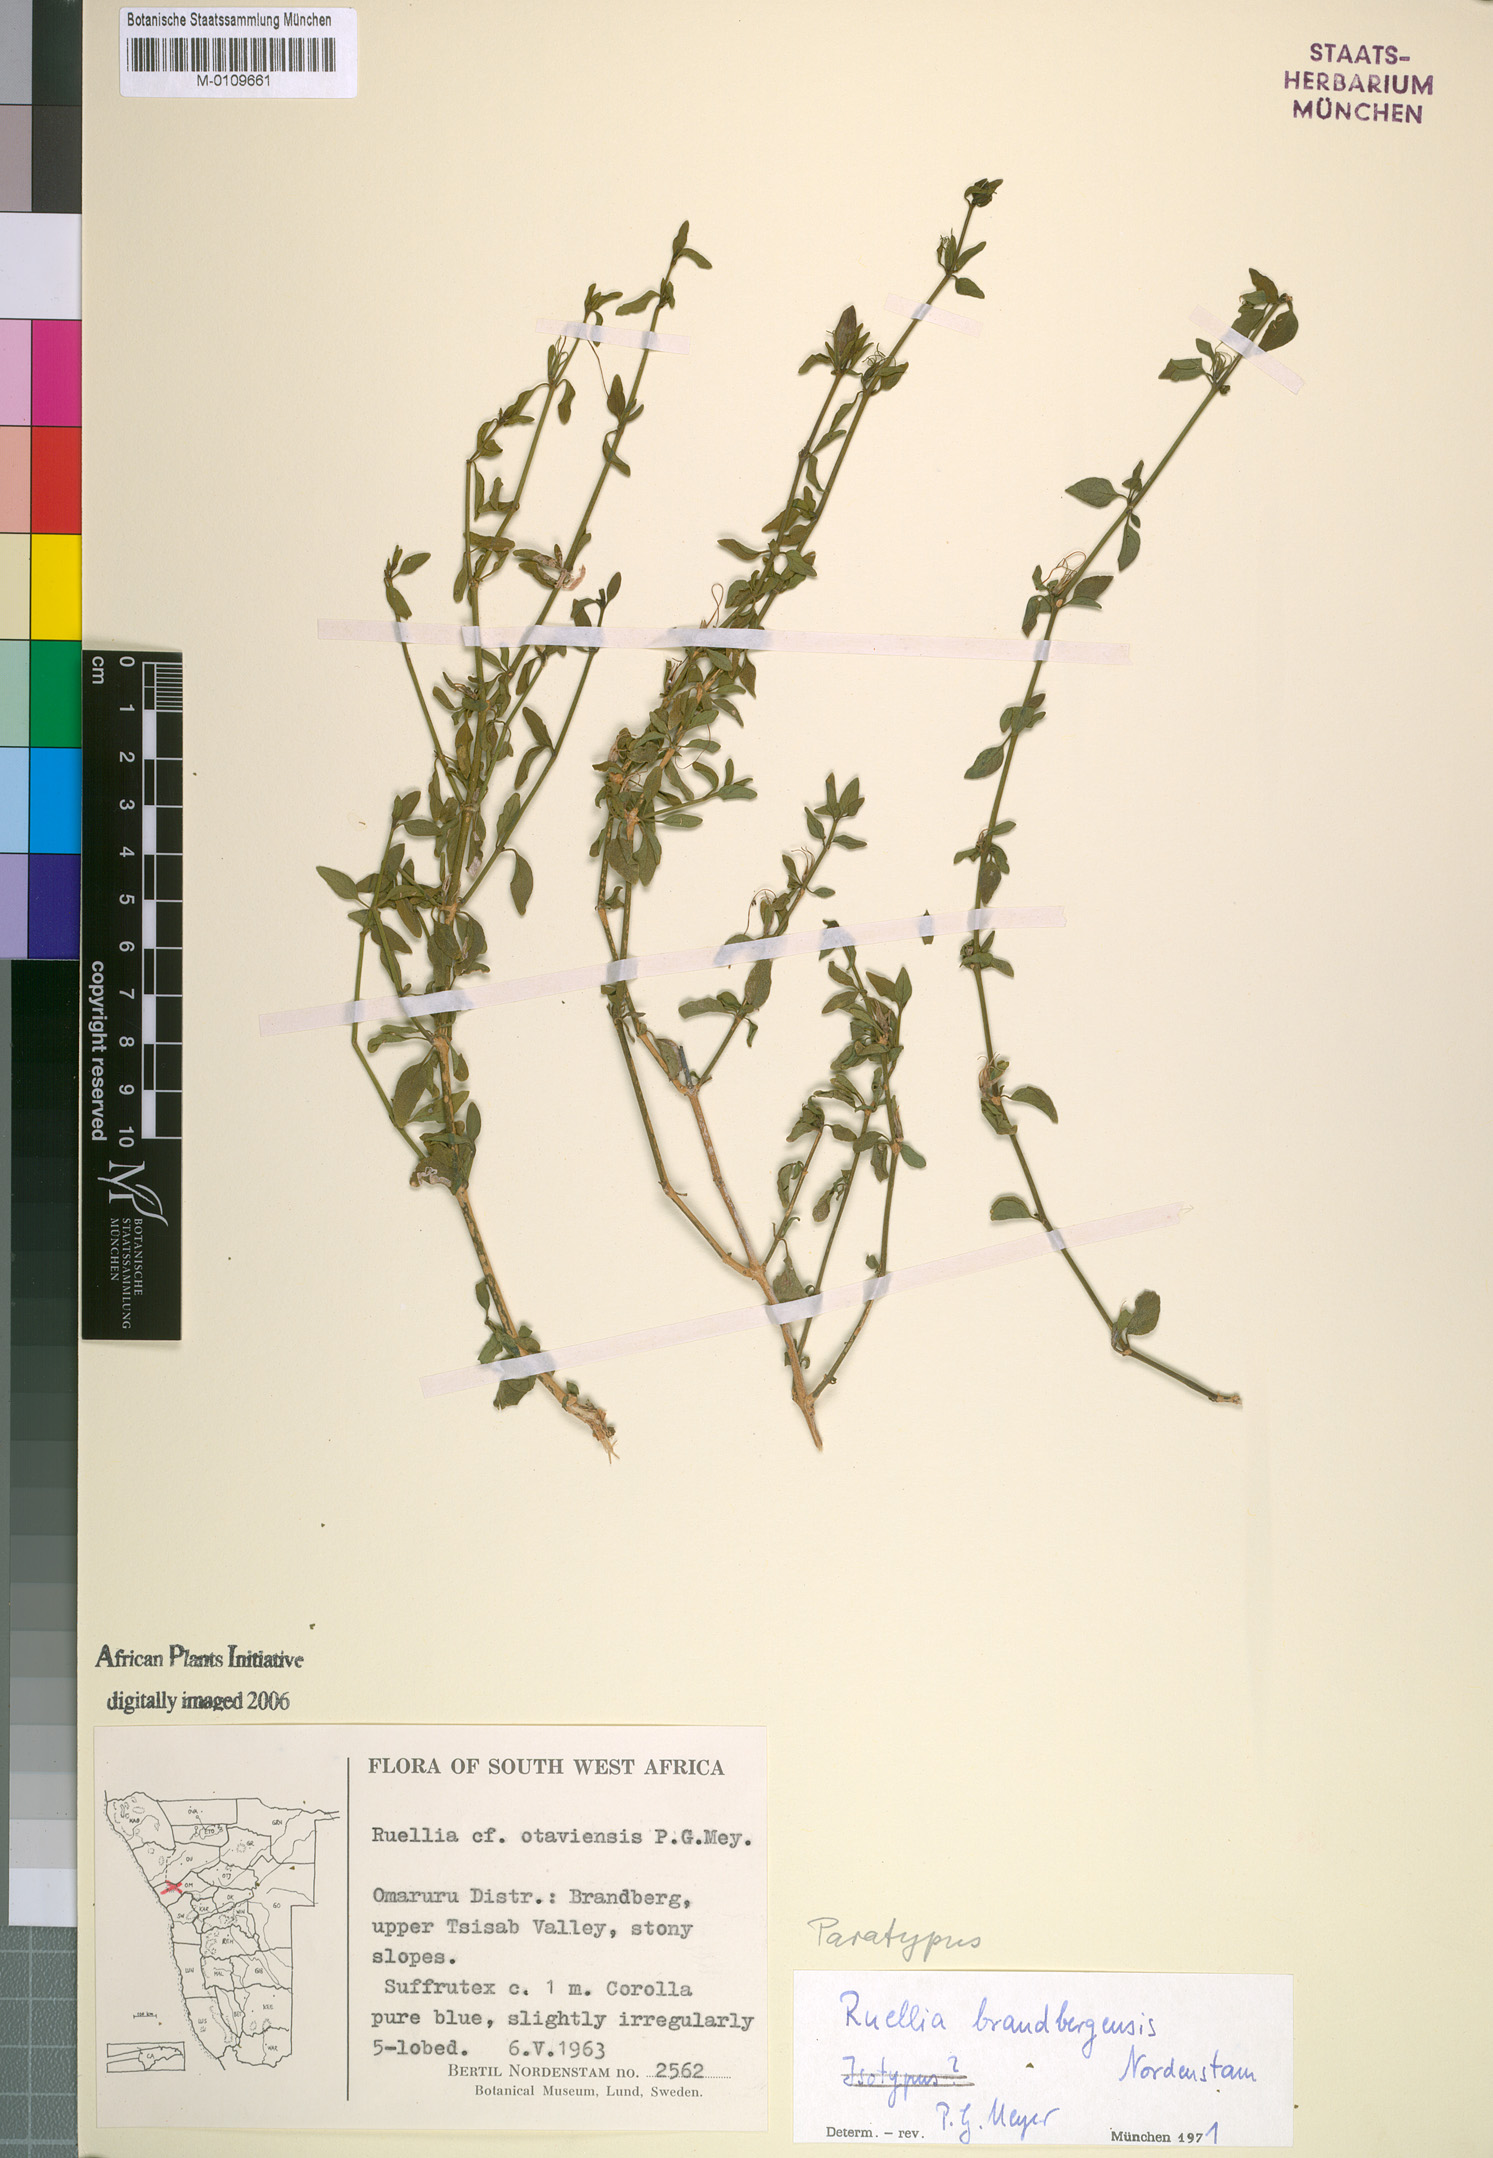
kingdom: Plantae
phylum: Tracheophyta
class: Magnoliopsida
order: Lamiales
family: Acanthaceae
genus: Ruellia
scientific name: Ruellia brandbergensis
